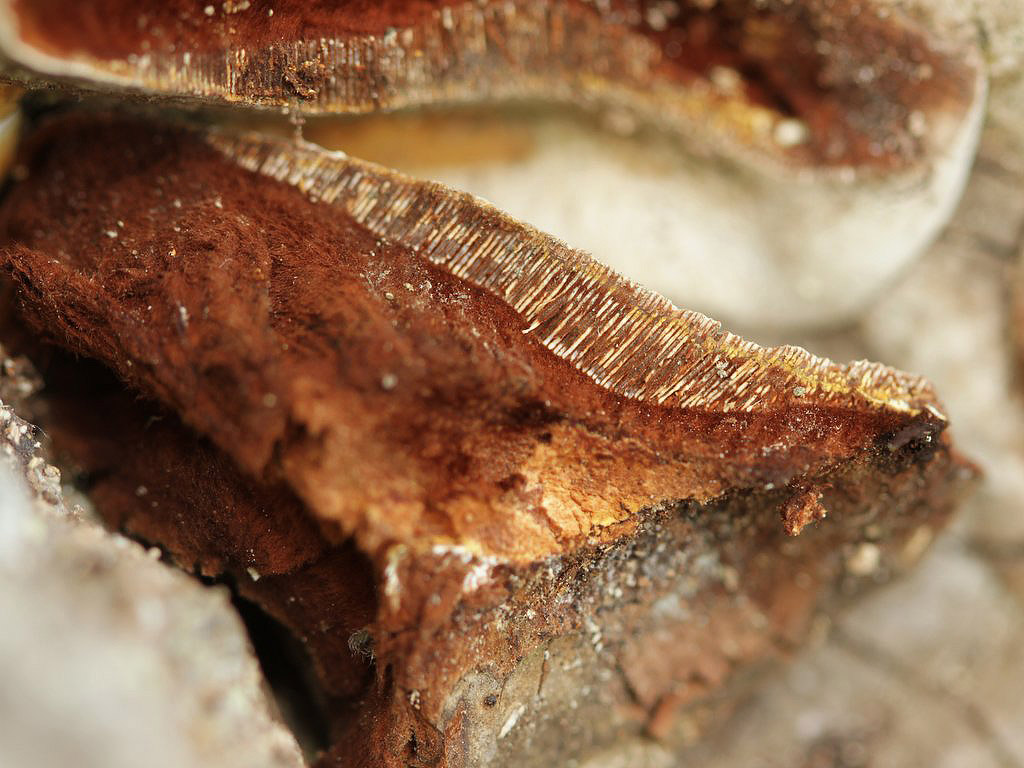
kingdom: Fungi
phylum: Basidiomycota
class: Agaricomycetes
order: Polyporales
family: Polyporaceae
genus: Ganoderma
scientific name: Ganoderma adspersum
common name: grov lakporesvamp
